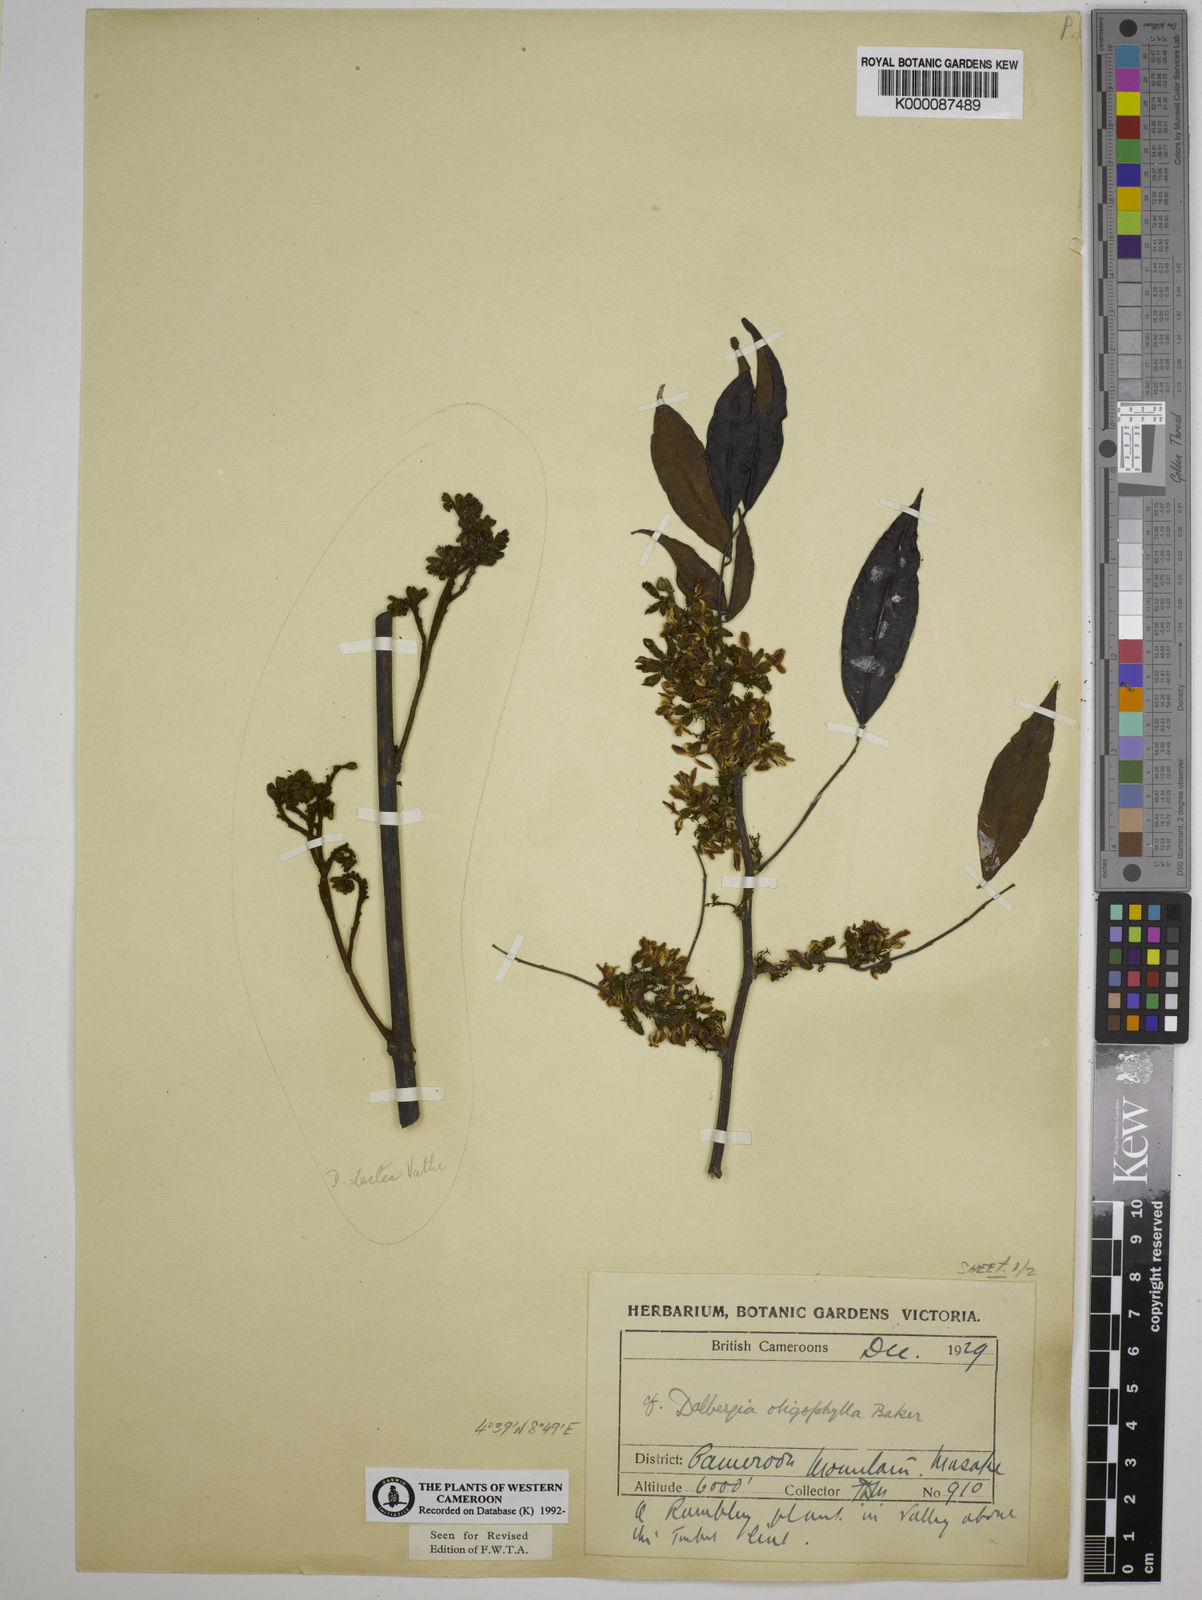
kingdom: Plantae
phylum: Tracheophyta
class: Magnoliopsida
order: Fabales
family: Fabaceae
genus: Dalbergia
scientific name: Dalbergia oligophylla
